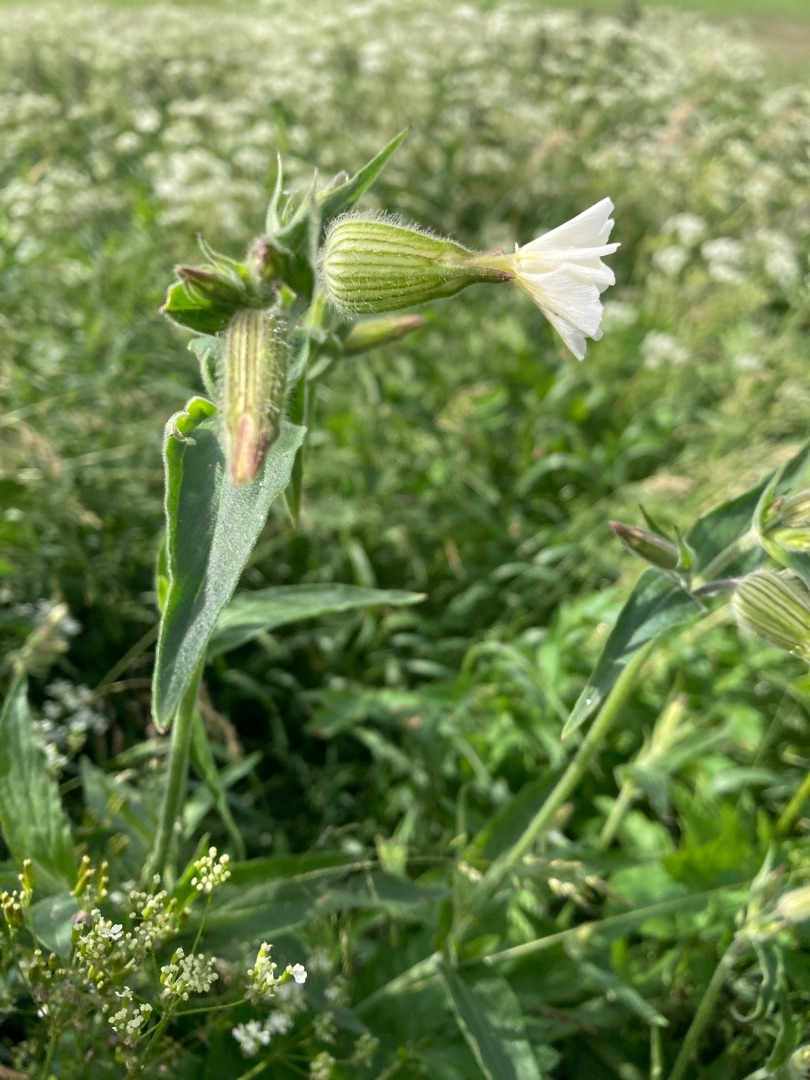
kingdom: Plantae
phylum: Tracheophyta
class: Magnoliopsida
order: Caryophyllales
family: Caryophyllaceae
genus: Silene
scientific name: Silene latifolia
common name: Aftenpragtstjerne
